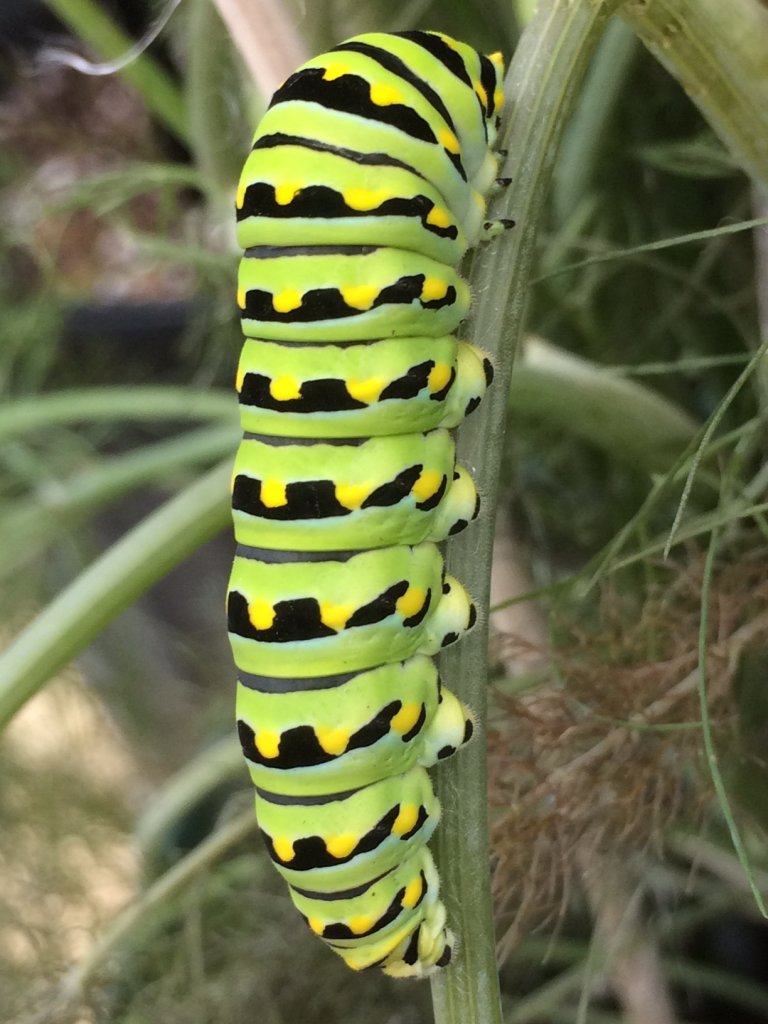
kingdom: Animalia
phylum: Arthropoda
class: Insecta
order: Lepidoptera
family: Papilionidae
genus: Papilio
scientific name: Papilio polyxenes
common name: Black Swallowtail
